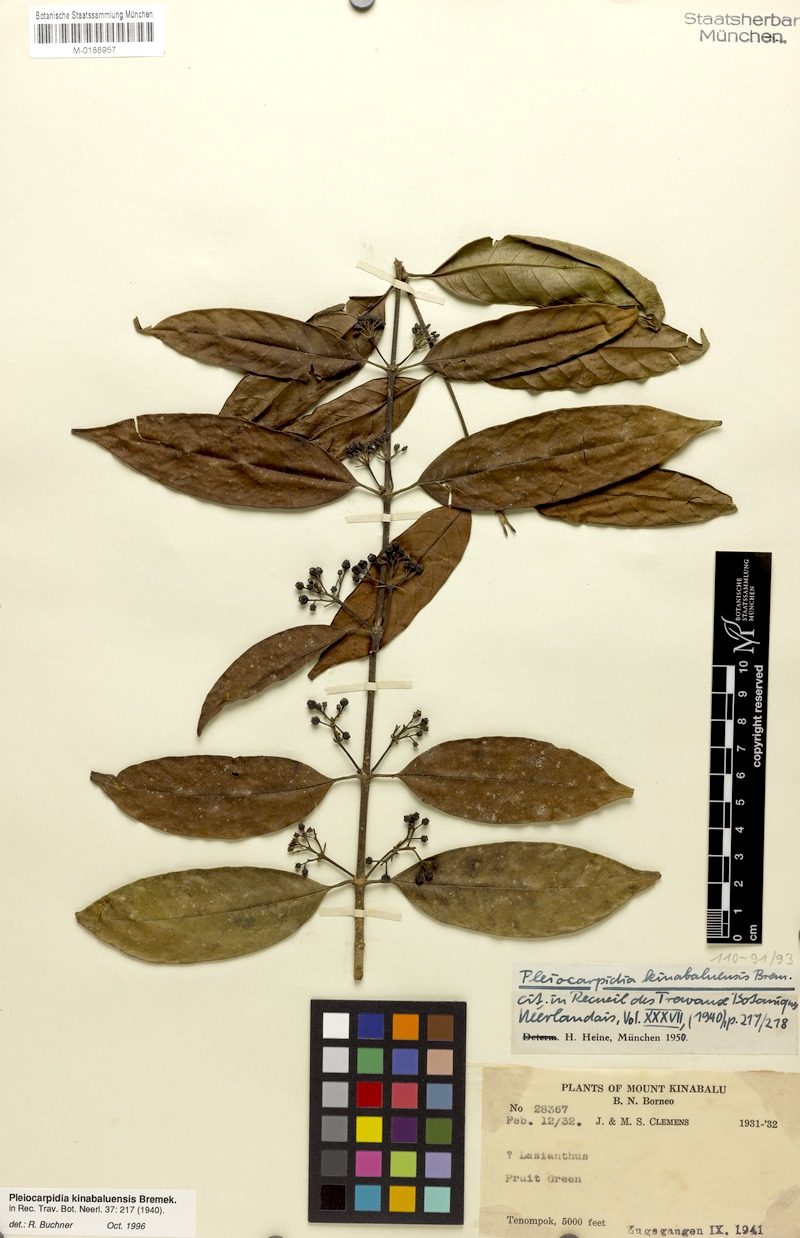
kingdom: Plantae
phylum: Tracheophyta
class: Magnoliopsida
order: Gentianales
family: Rubiaceae
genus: Urophyllum
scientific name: Urophyllum kinabaluense
